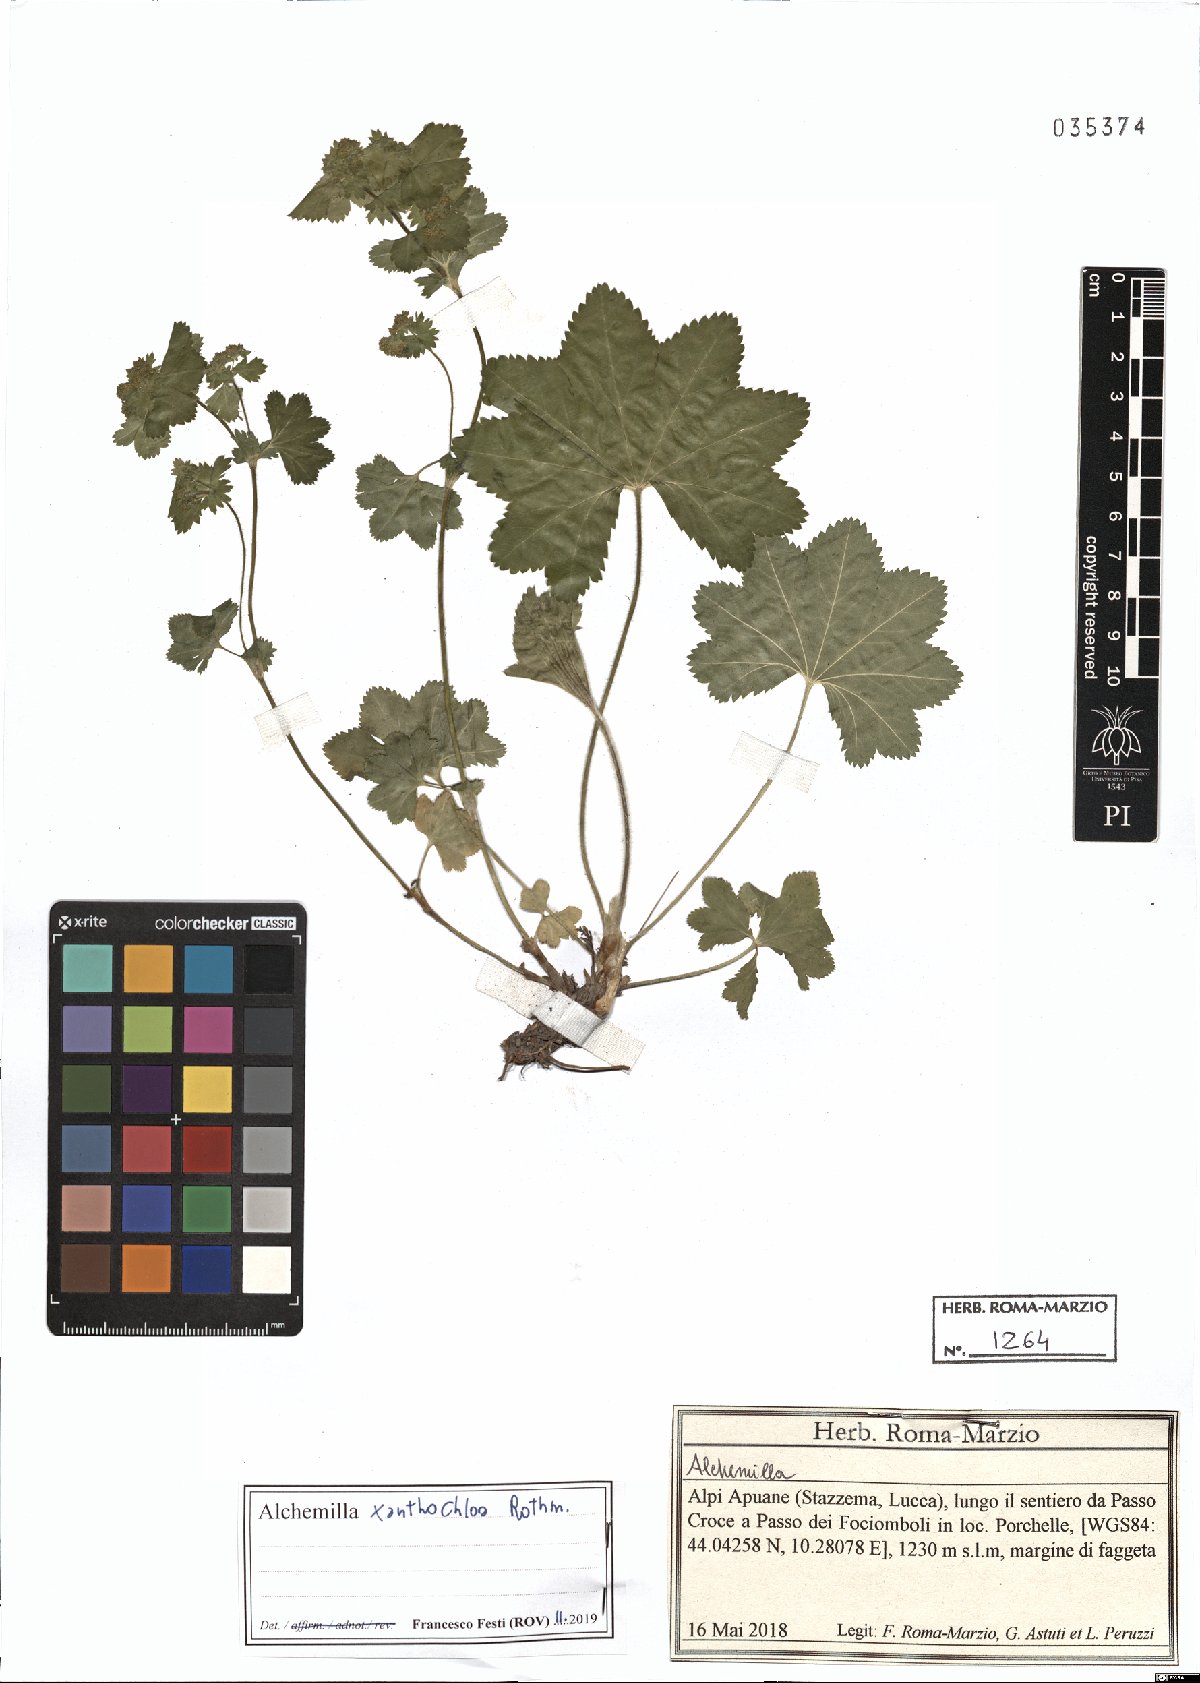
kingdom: Plantae
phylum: Tracheophyta
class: Magnoliopsida
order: Rosales
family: Rosaceae
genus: Alchemilla
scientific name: Alchemilla xanthochlora
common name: Intermediate lady's-mantle
